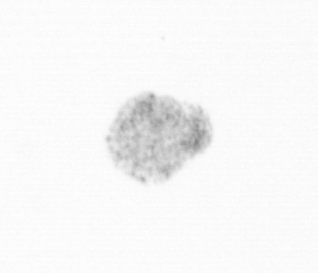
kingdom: Chromista
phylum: Ochrophyta
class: Bacillariophyceae
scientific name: Bacillariophyceae
